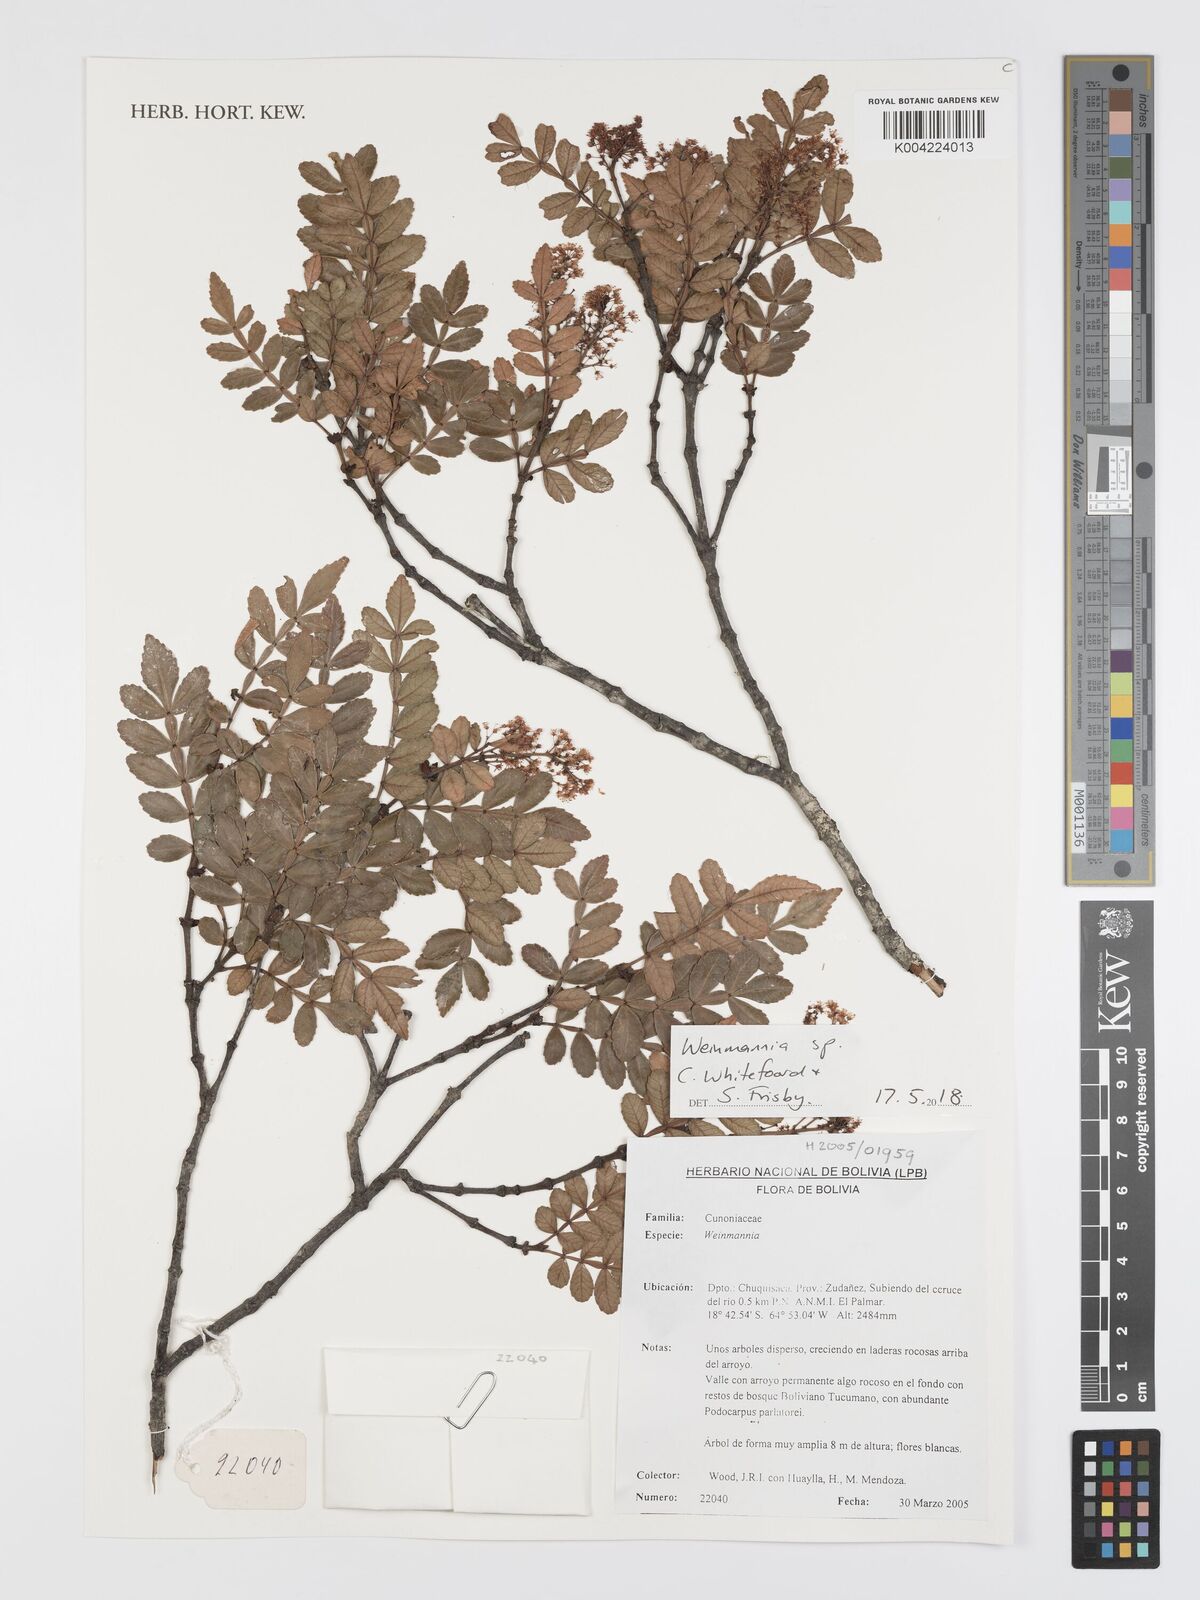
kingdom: Plantae
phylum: Tracheophyta
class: Magnoliopsida
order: Oxalidales
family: Cunoniaceae
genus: Weinmannia
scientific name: Weinmannia
